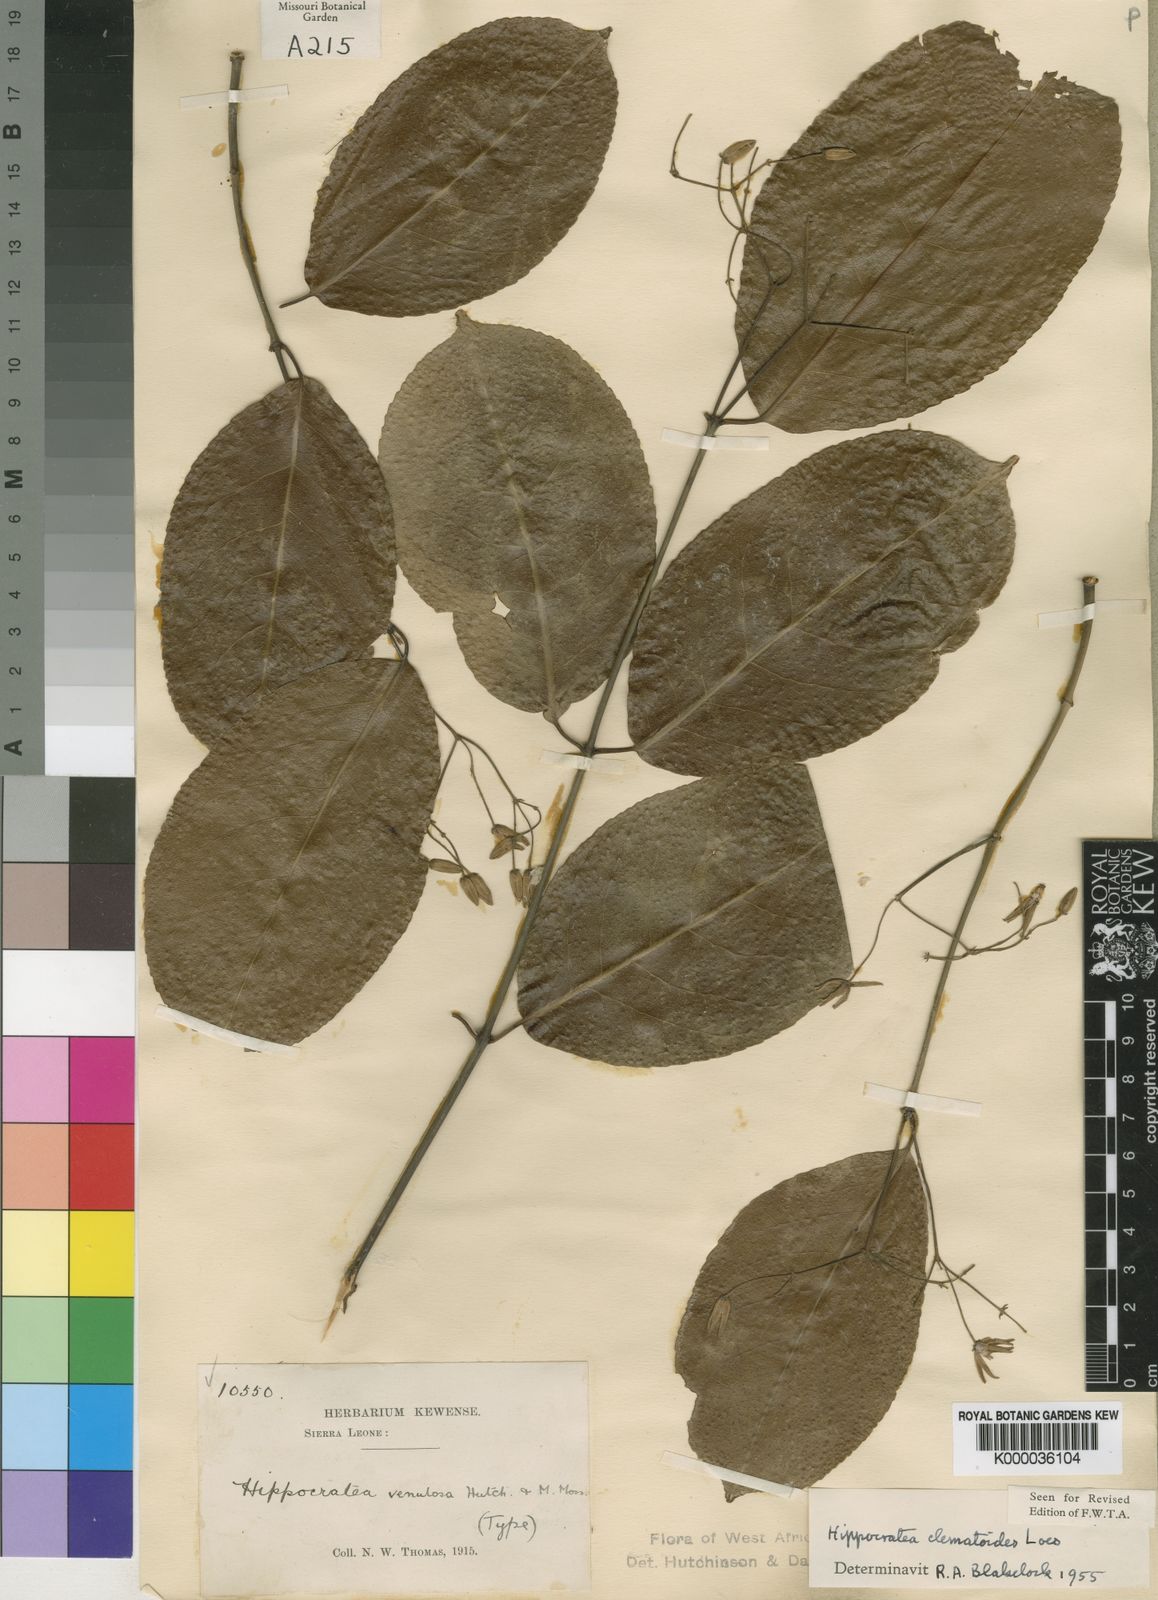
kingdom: Plantae
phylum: Tracheophyta
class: Magnoliopsida
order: Celastrales
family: Celastraceae
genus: Loeseneriella
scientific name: Loeseneriella
